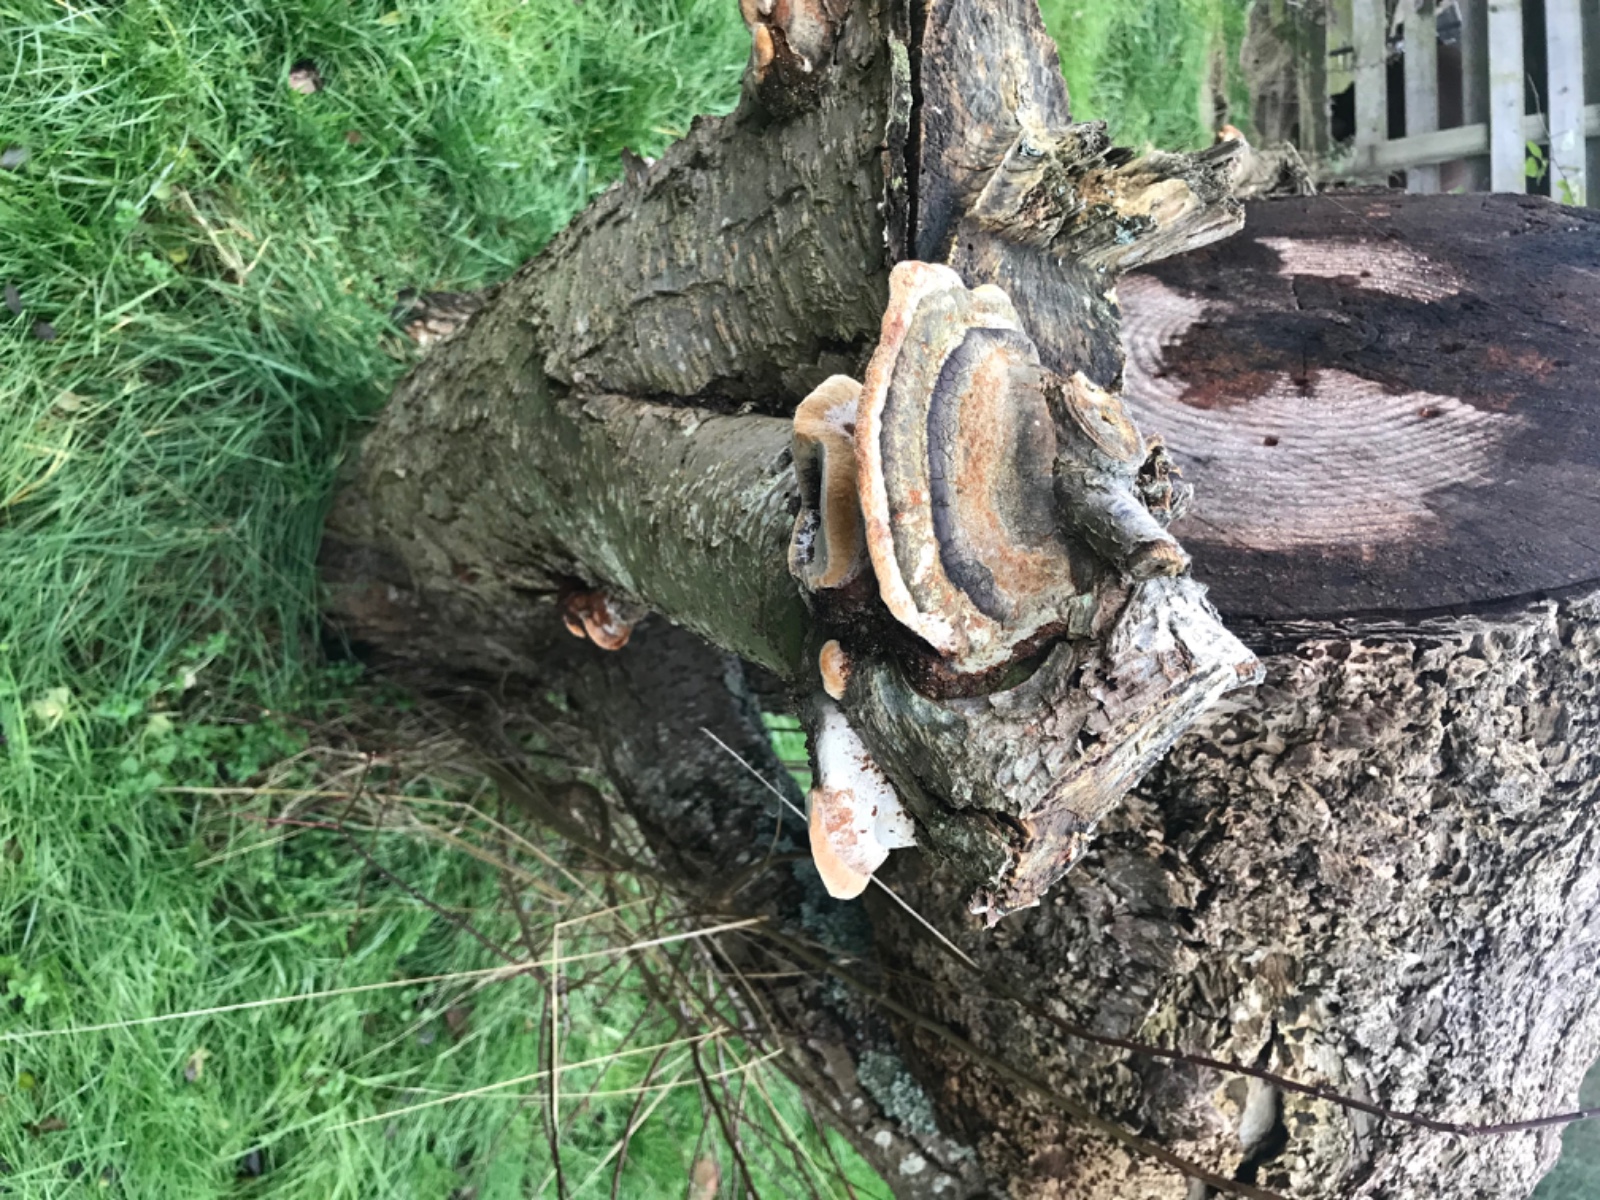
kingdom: Fungi
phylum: Basidiomycota
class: Agaricomycetes
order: Hymenochaetales
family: Hymenochaetaceae
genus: Phellinus
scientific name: Phellinus pomaceus
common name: blomme-ildporesvamp
